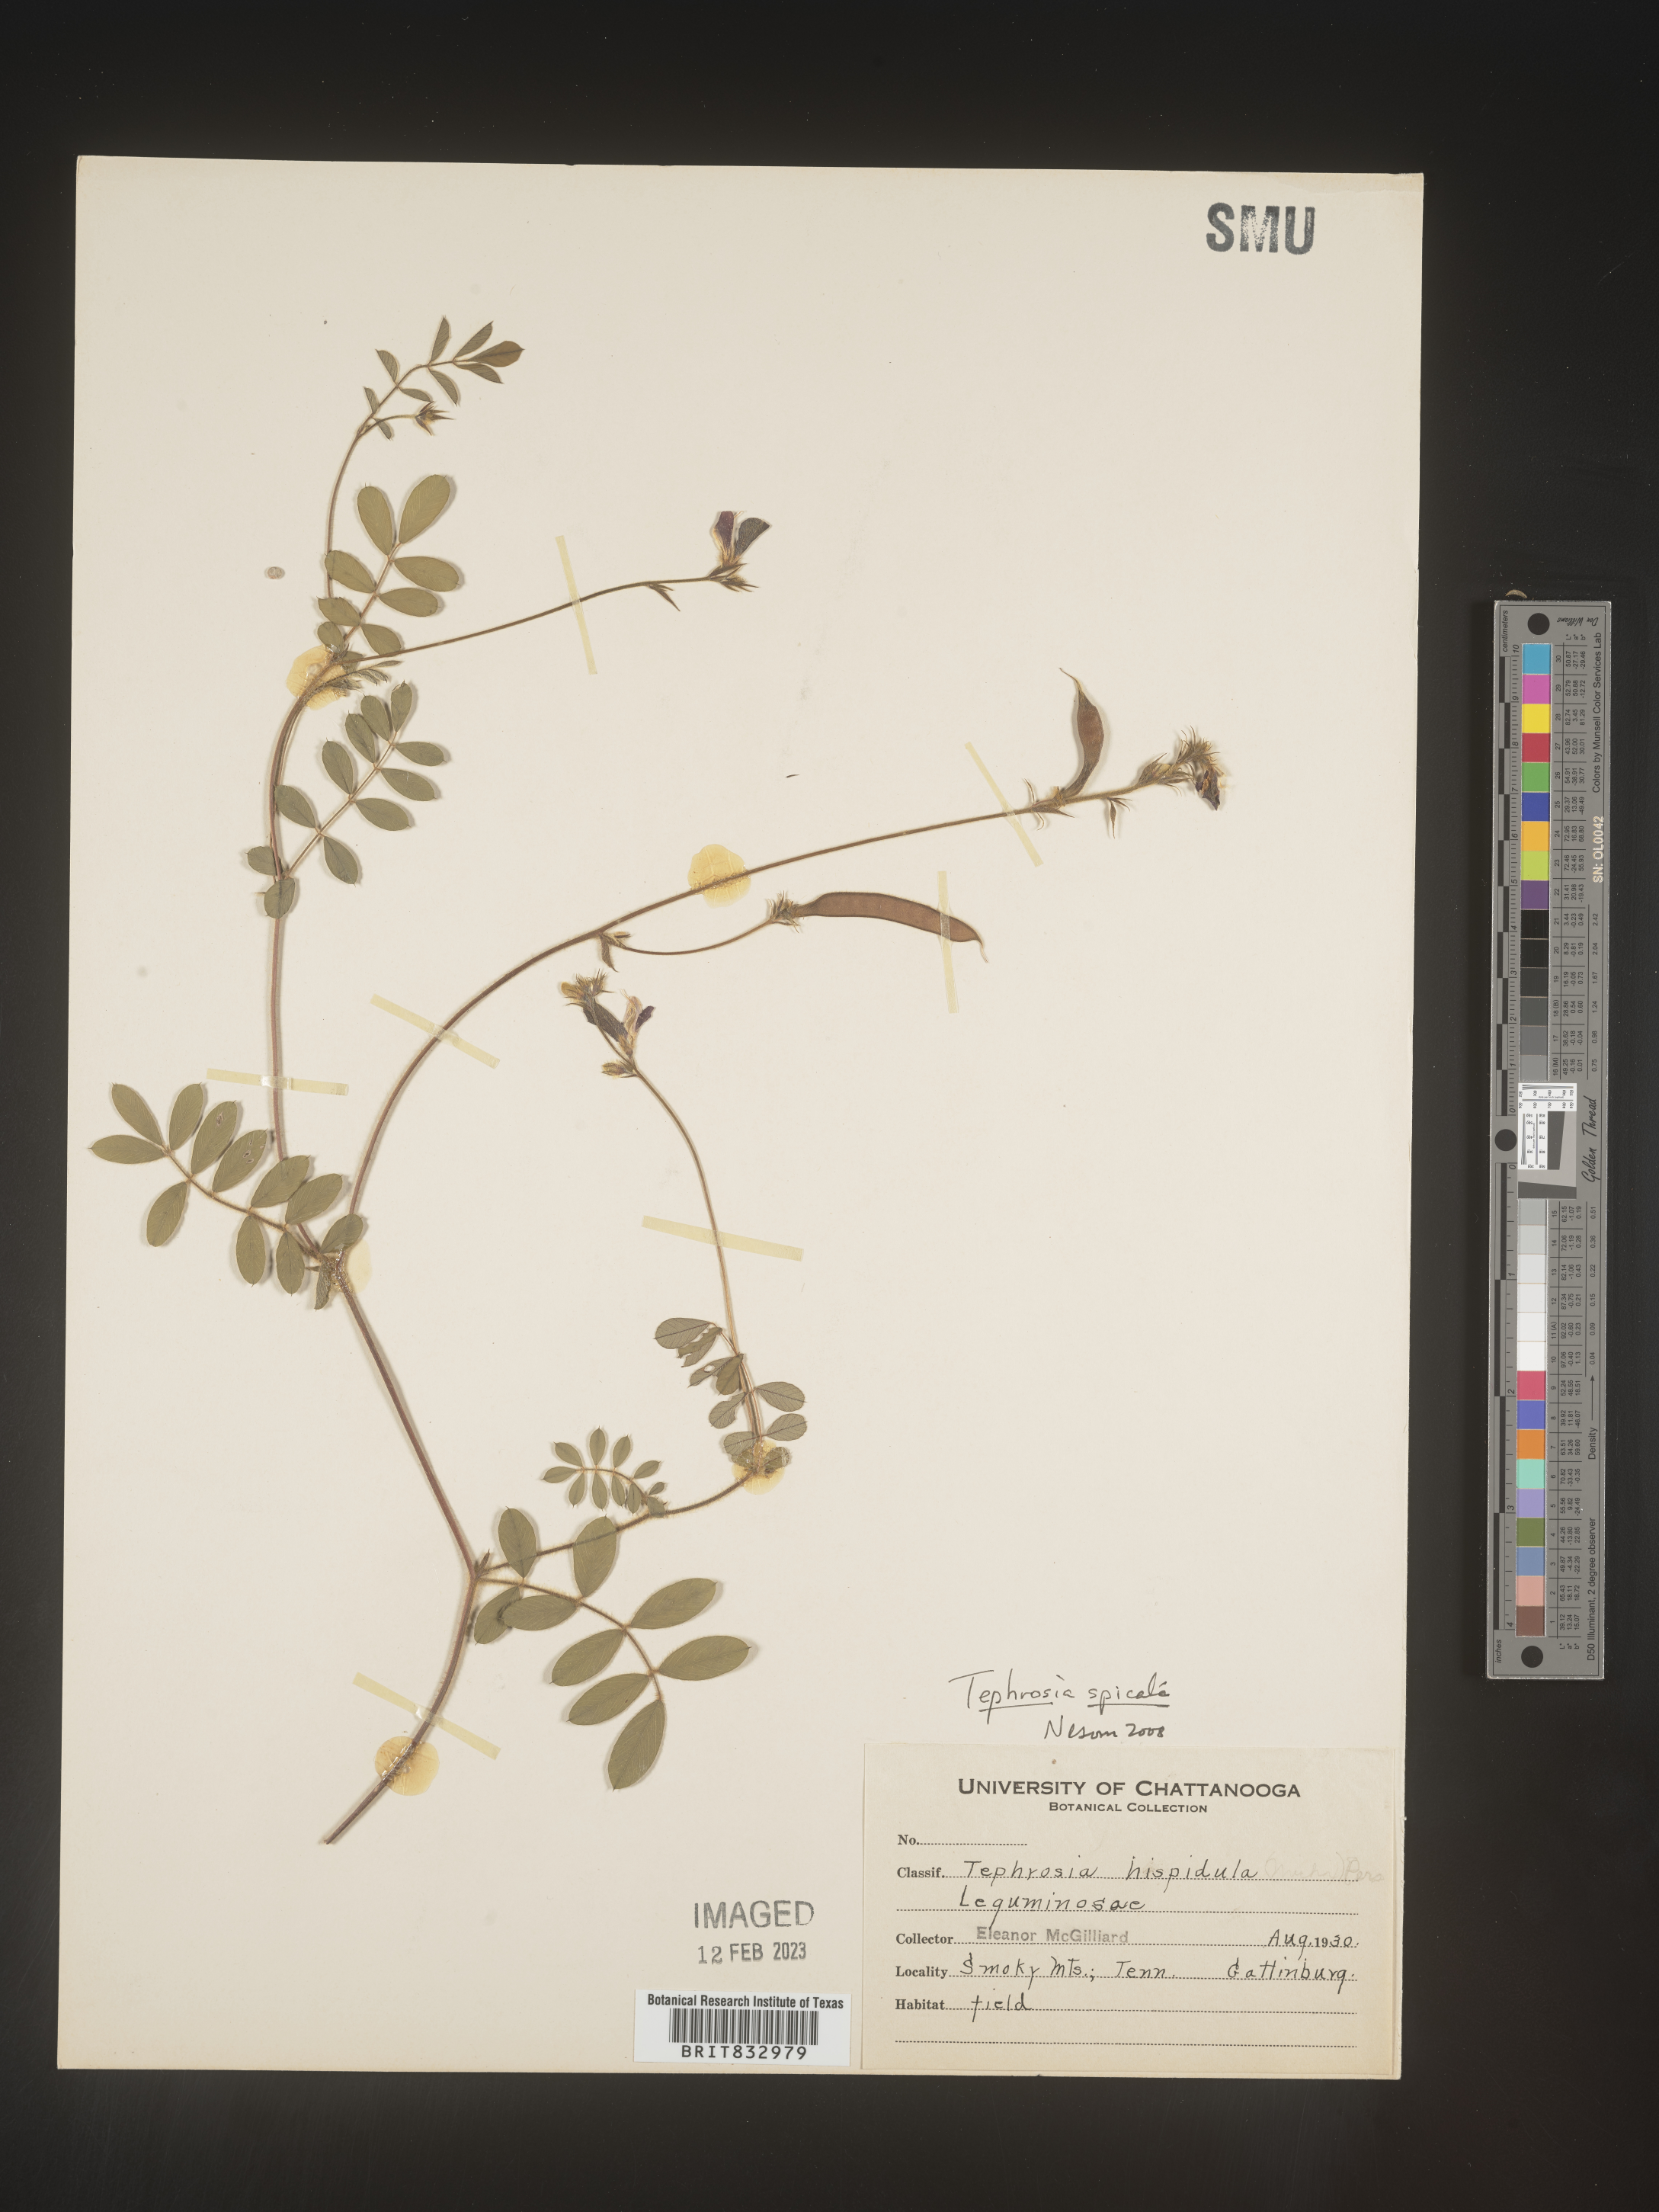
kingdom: Plantae
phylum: Tracheophyta
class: Magnoliopsida
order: Fabales
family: Fabaceae
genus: Tephrosia
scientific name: Tephrosia spicata
